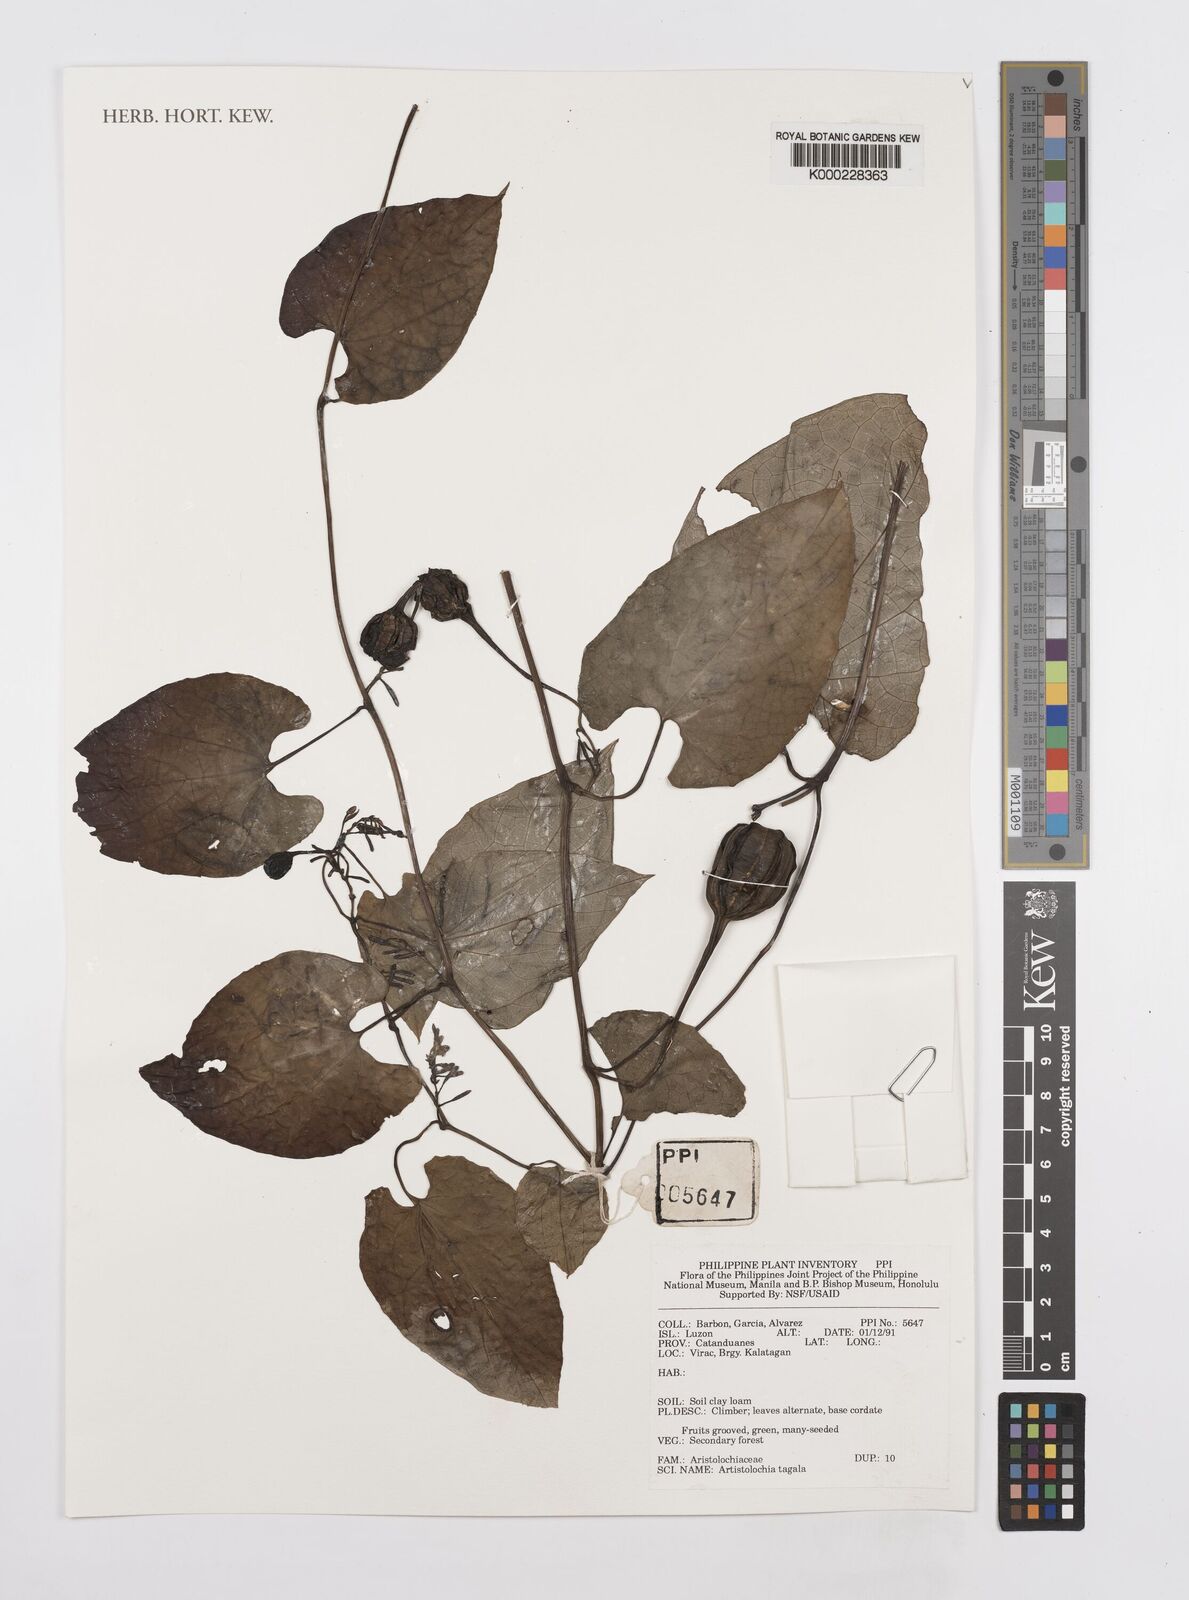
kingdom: Plantae
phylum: Tracheophyta
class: Magnoliopsida
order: Piperales
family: Aristolochiaceae
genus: Aristolochia
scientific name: Aristolochia acuminata
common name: Indian birthwort
